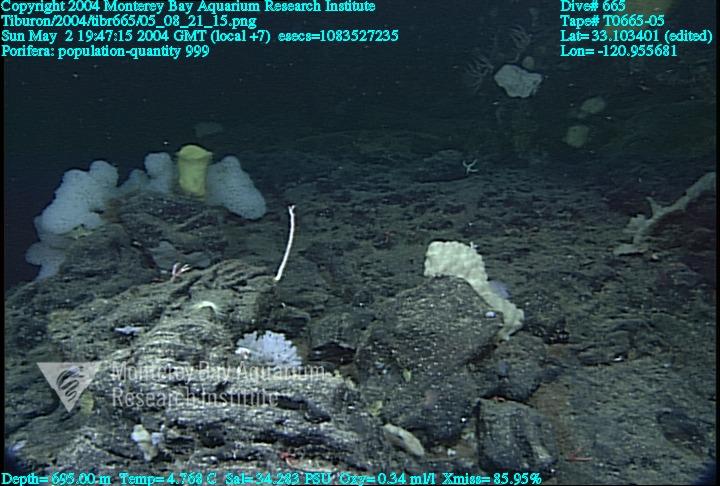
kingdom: Animalia
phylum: Porifera
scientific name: Porifera
